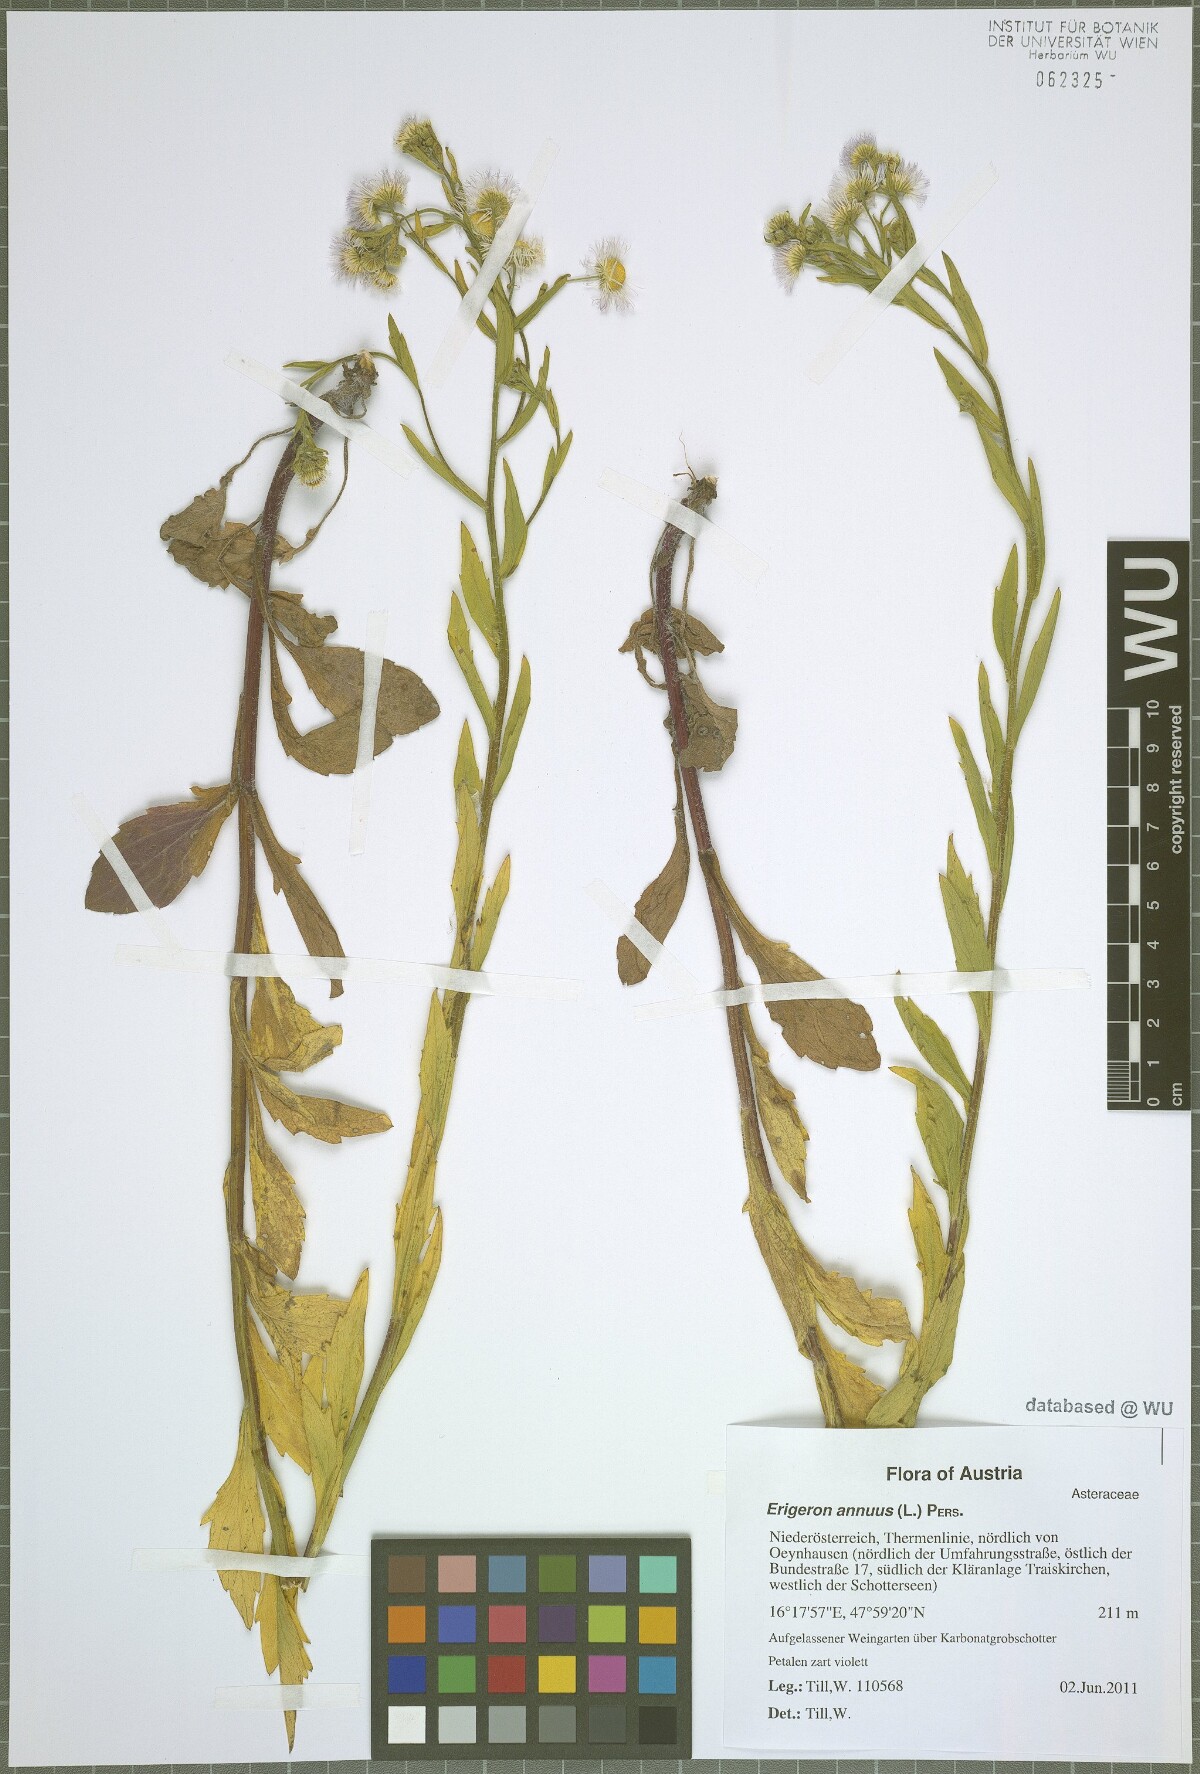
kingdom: Plantae
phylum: Tracheophyta
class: Magnoliopsida
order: Asterales
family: Asteraceae
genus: Erigeron
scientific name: Erigeron annuus
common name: Tall fleabane
